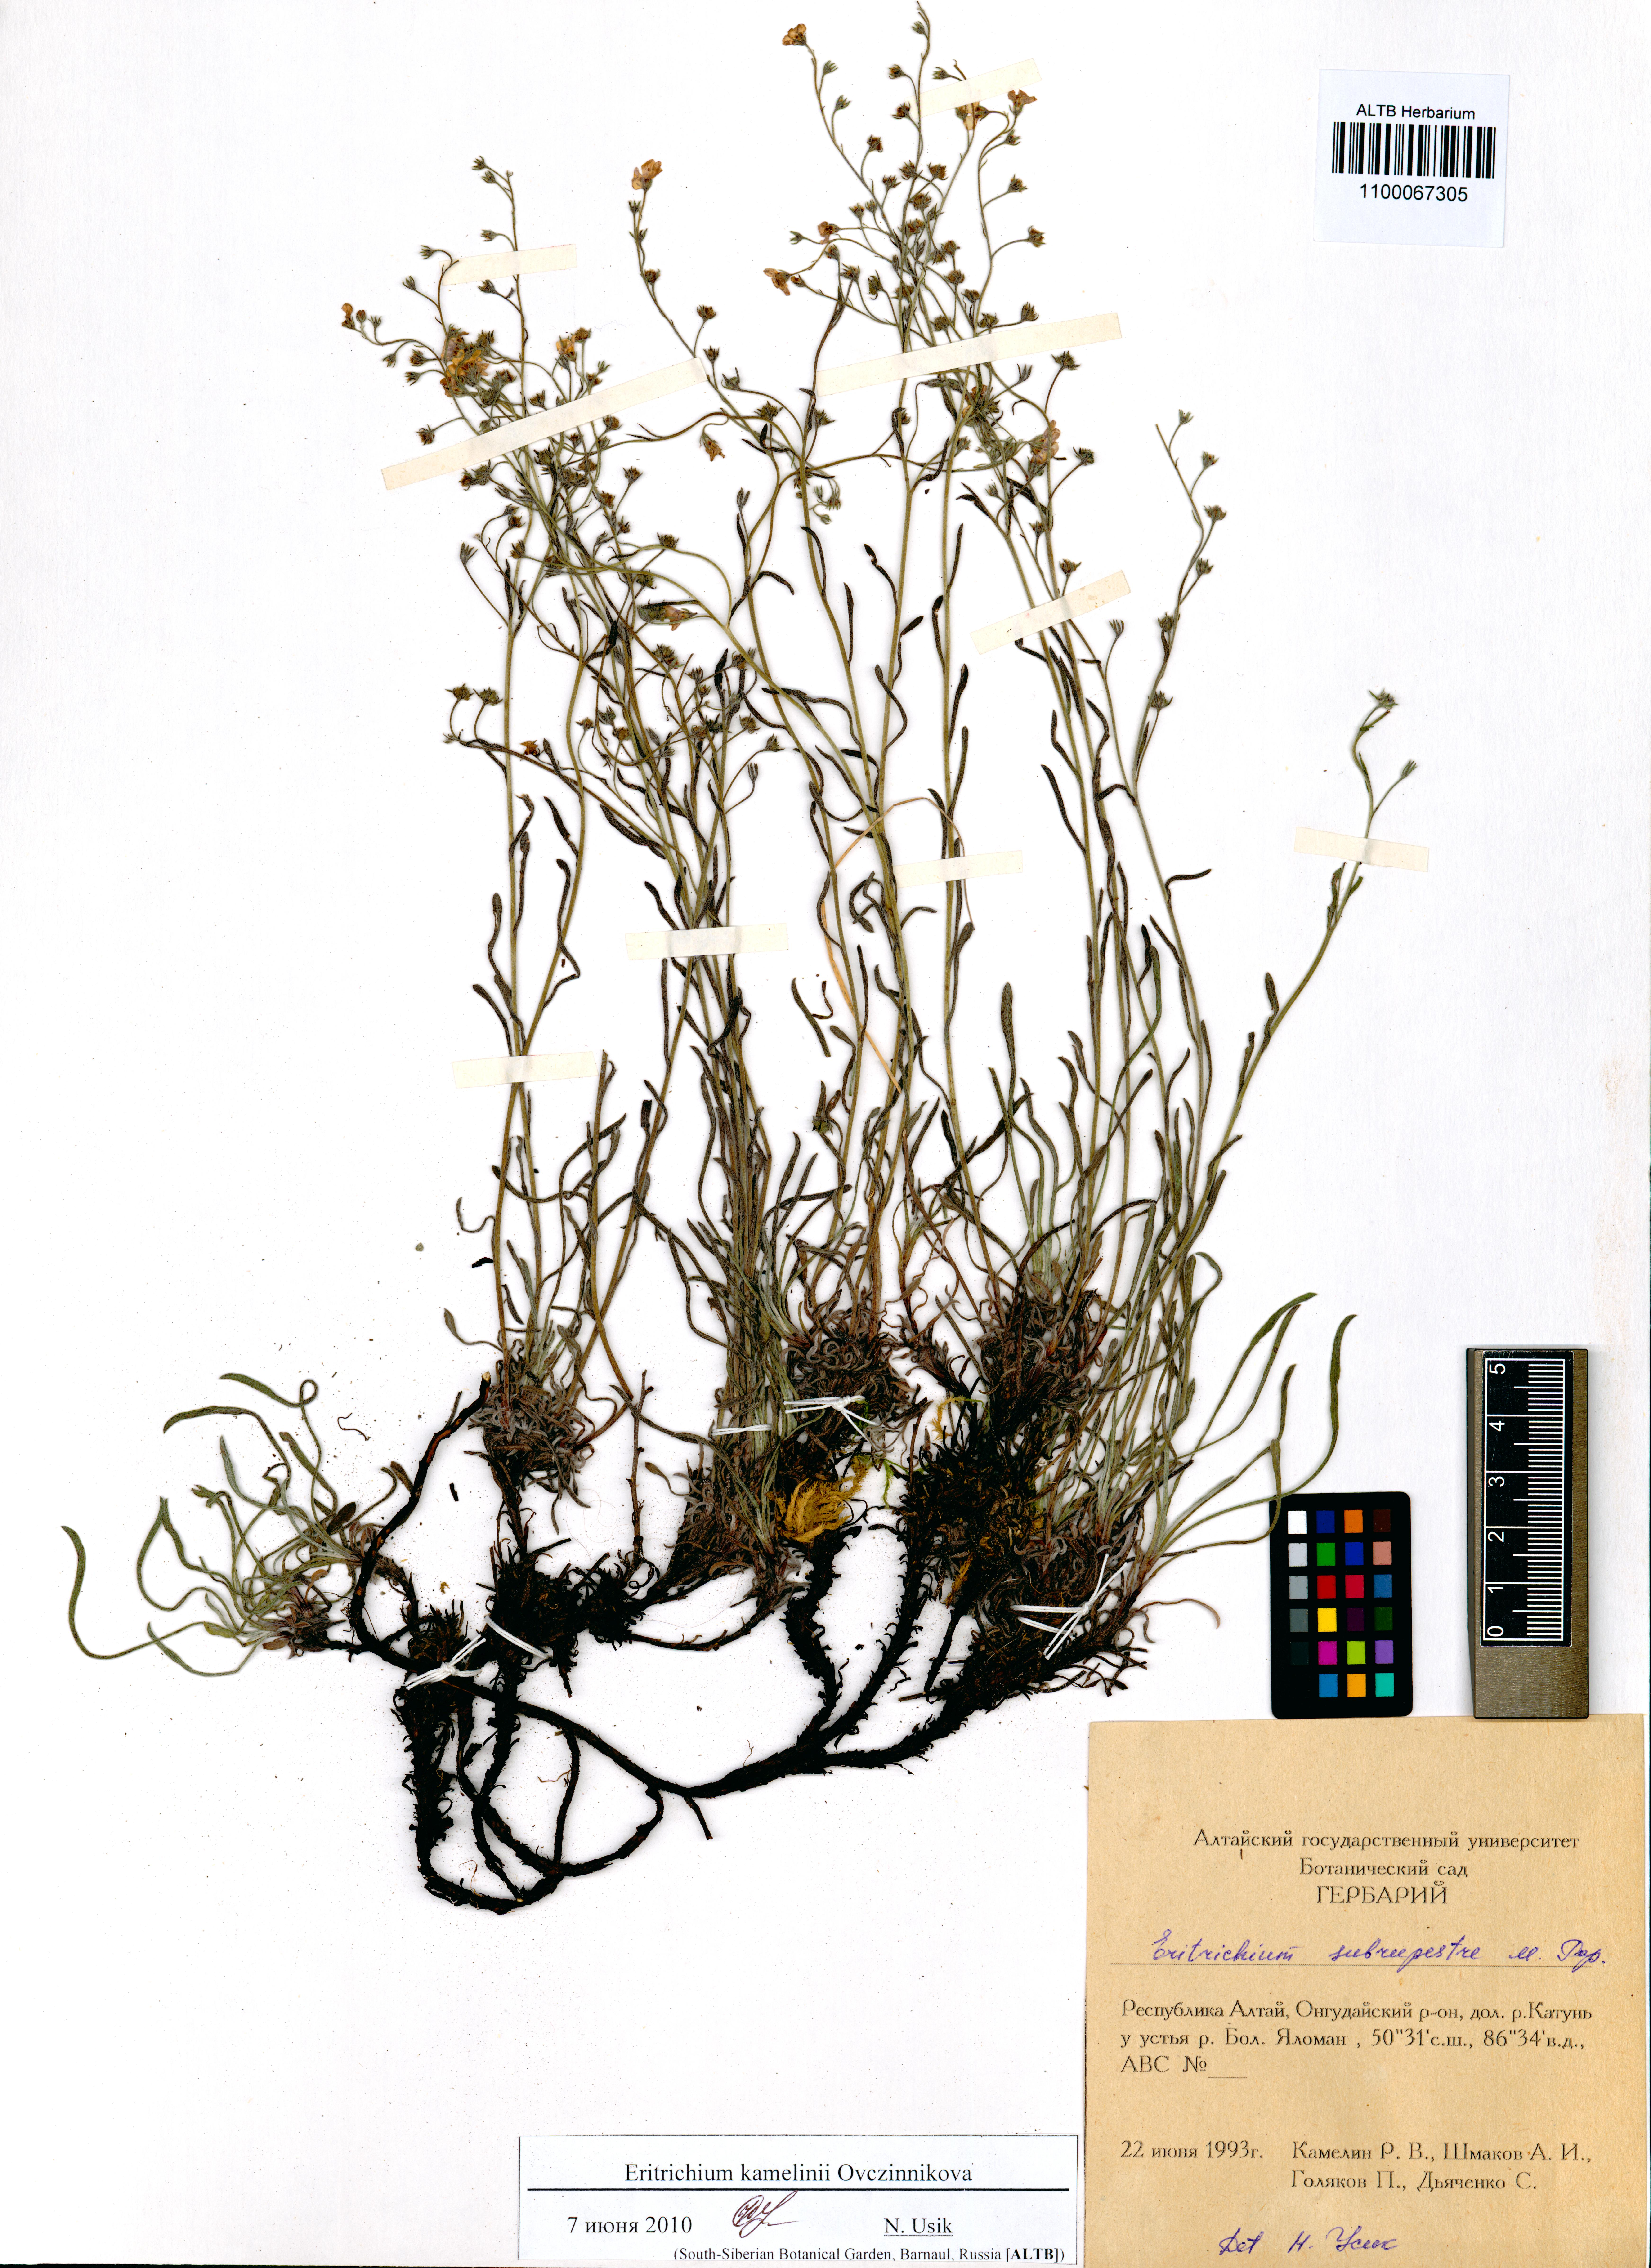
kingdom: Plantae
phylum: Tracheophyta
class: Magnoliopsida
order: Boraginales
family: Boraginaceae
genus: Eritrichium
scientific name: Eritrichium kamelinii
